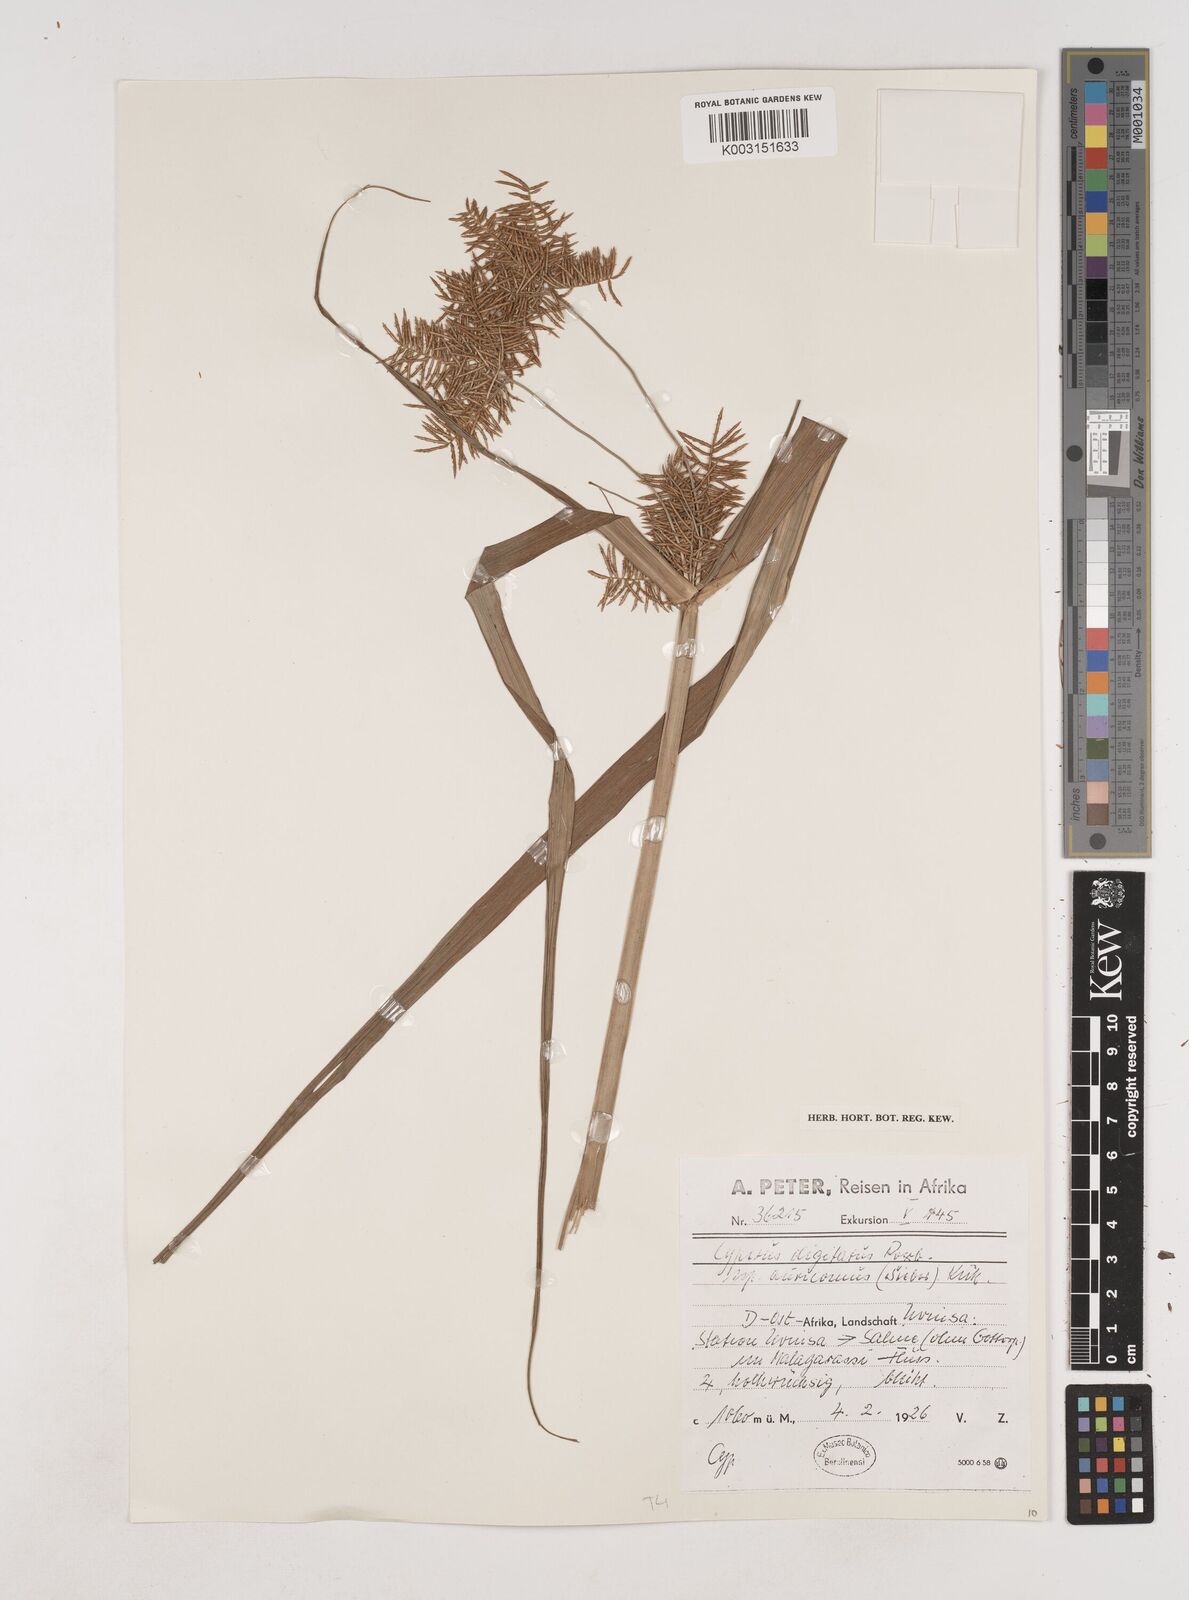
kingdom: Plantae
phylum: Tracheophyta
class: Liliopsida
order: Poales
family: Cyperaceae
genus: Cyperus
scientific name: Cyperus digitatus
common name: Finger flatsedge
